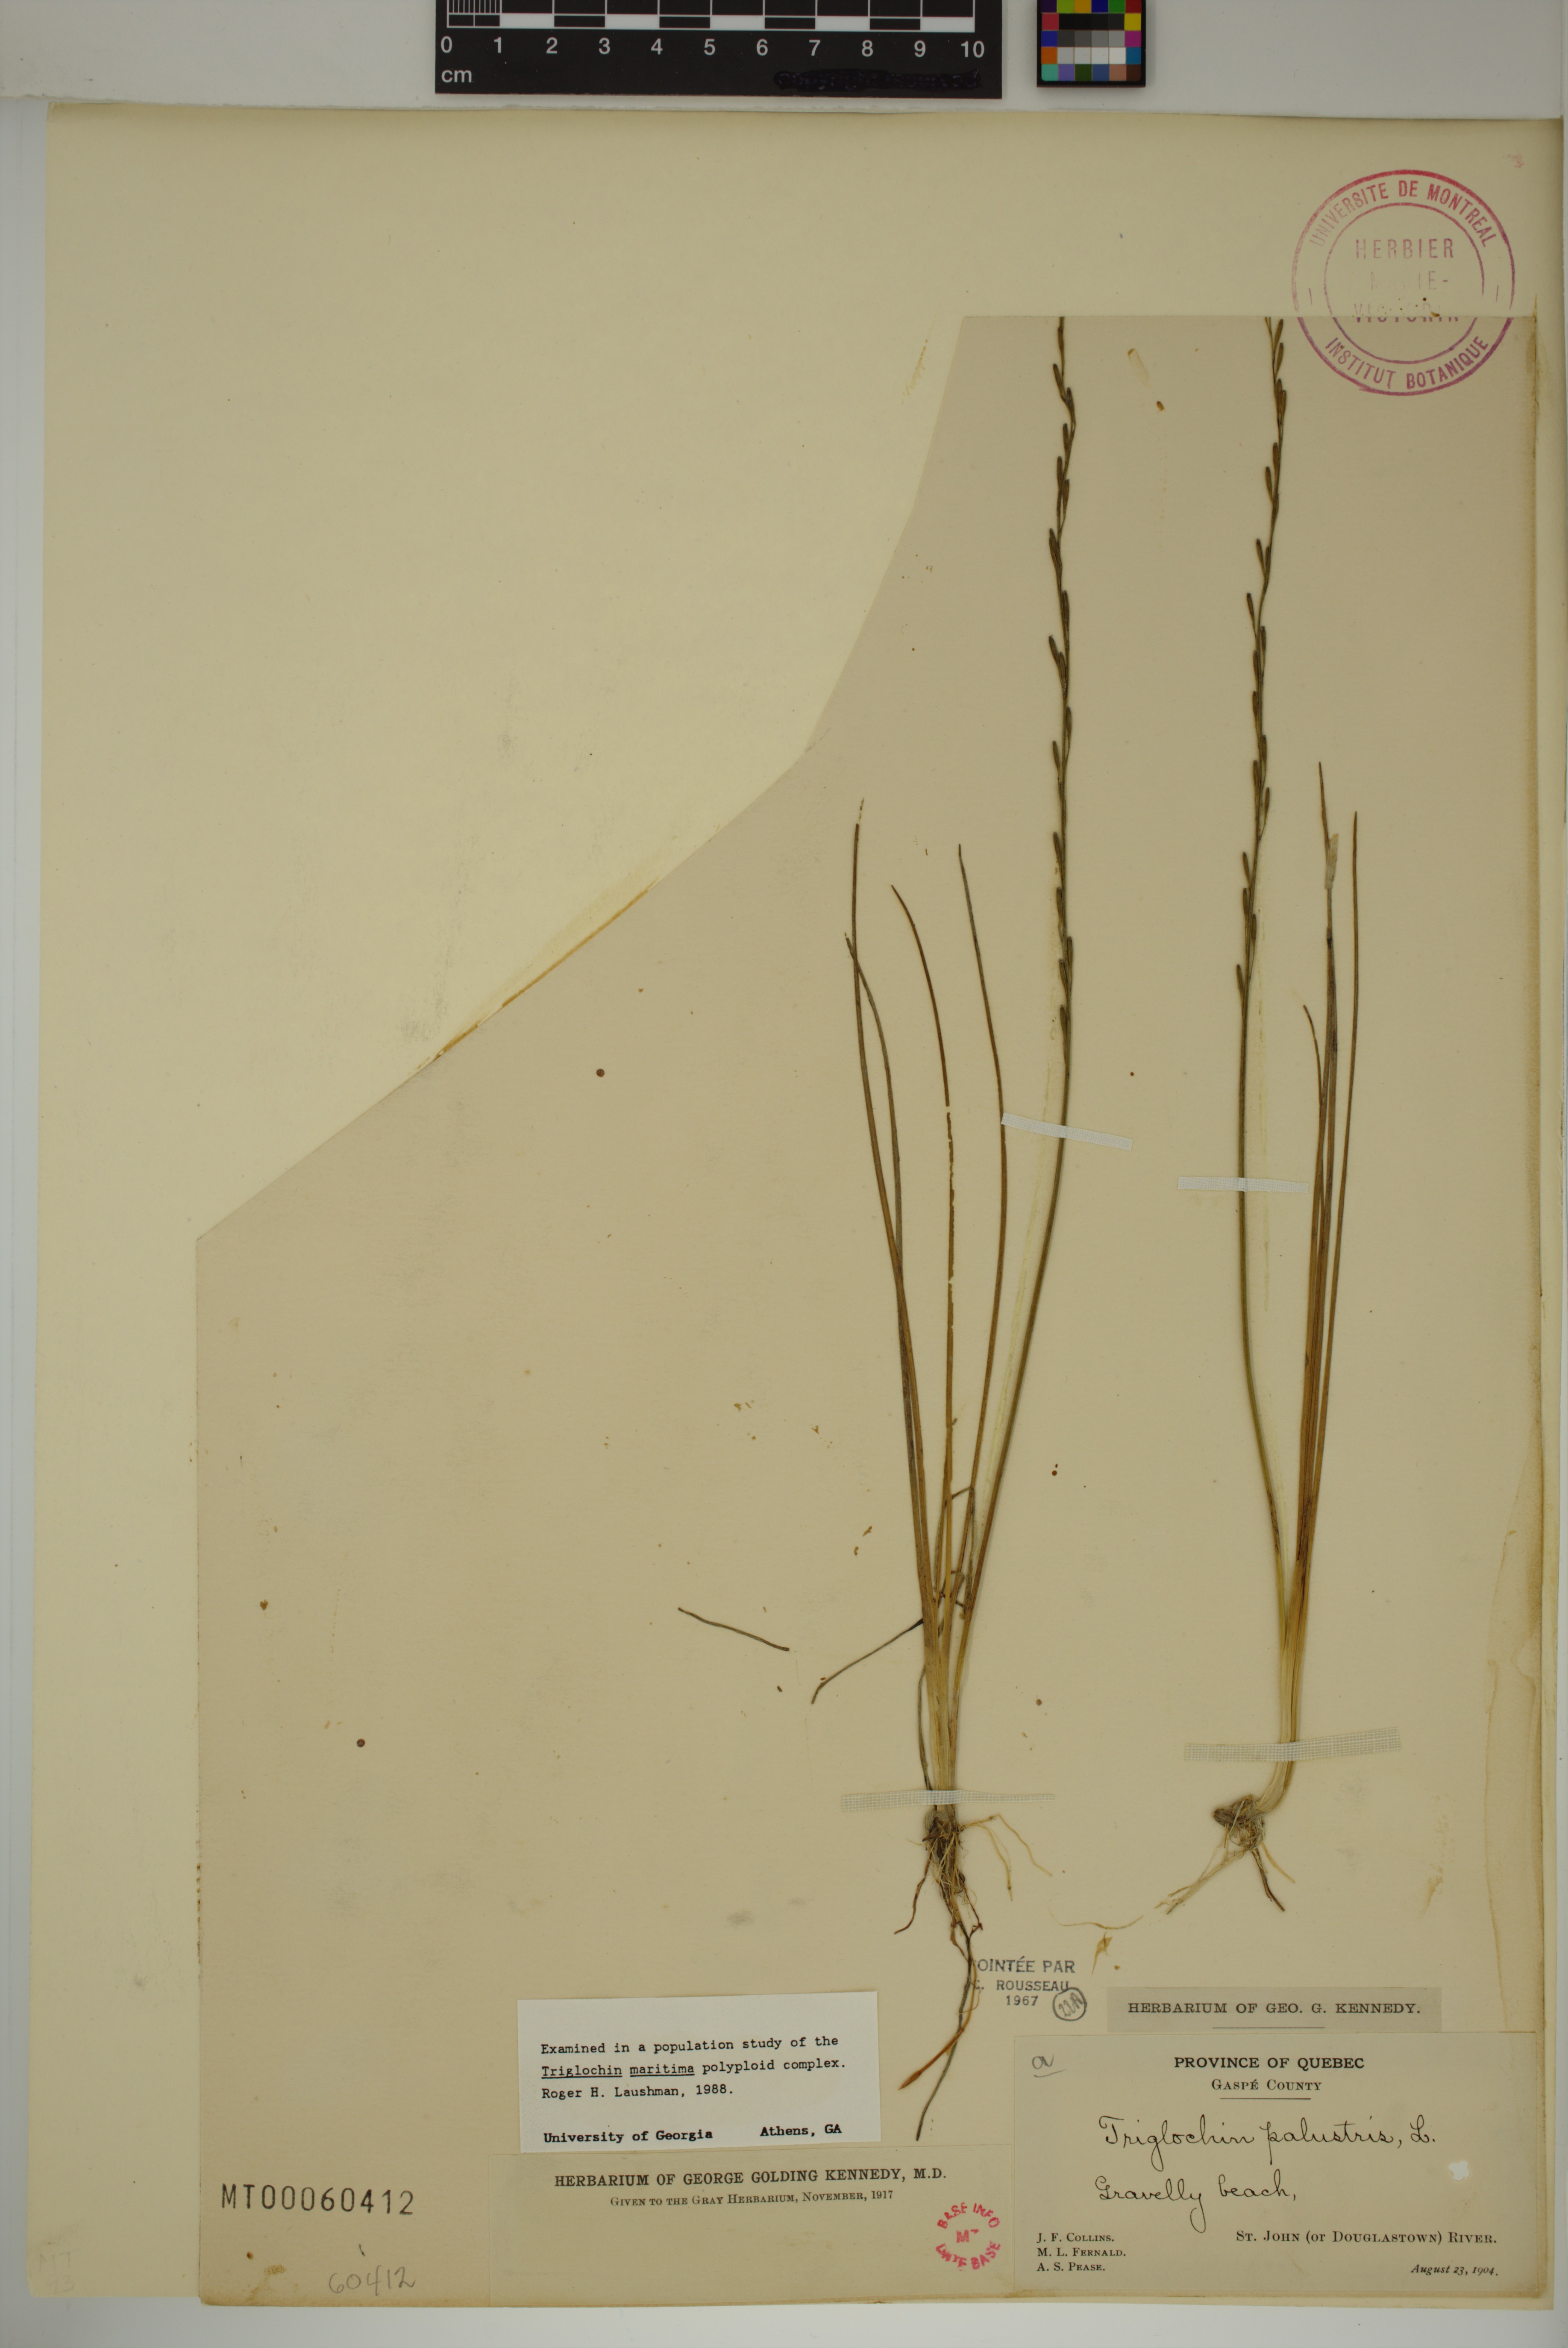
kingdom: Plantae
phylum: Tracheophyta
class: Liliopsida
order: Alismatales
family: Juncaginaceae
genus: Triglochin
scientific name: Triglochin palustris
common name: Marsh arrowgrass
